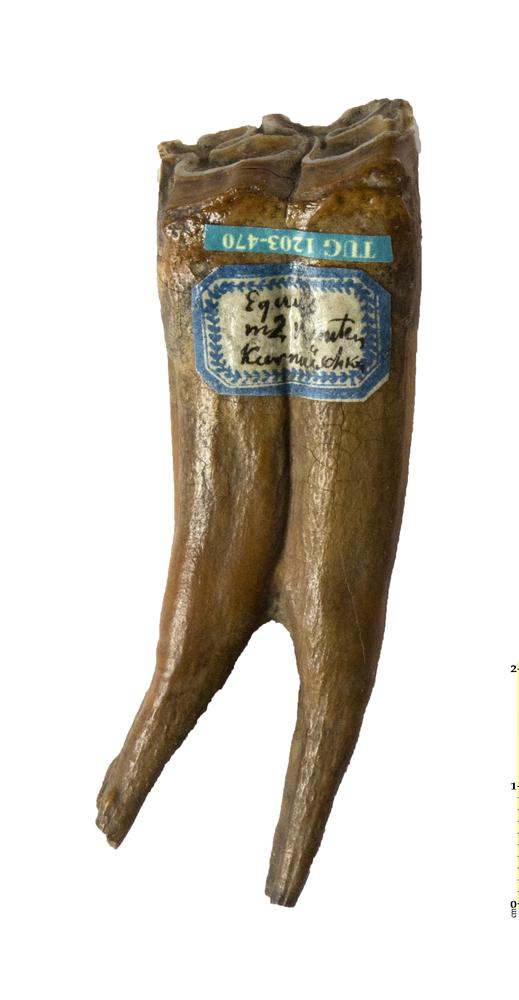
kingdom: Animalia
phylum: Chordata
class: Mammalia
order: Perissodactyla
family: Equidae
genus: Equus
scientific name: Equus
